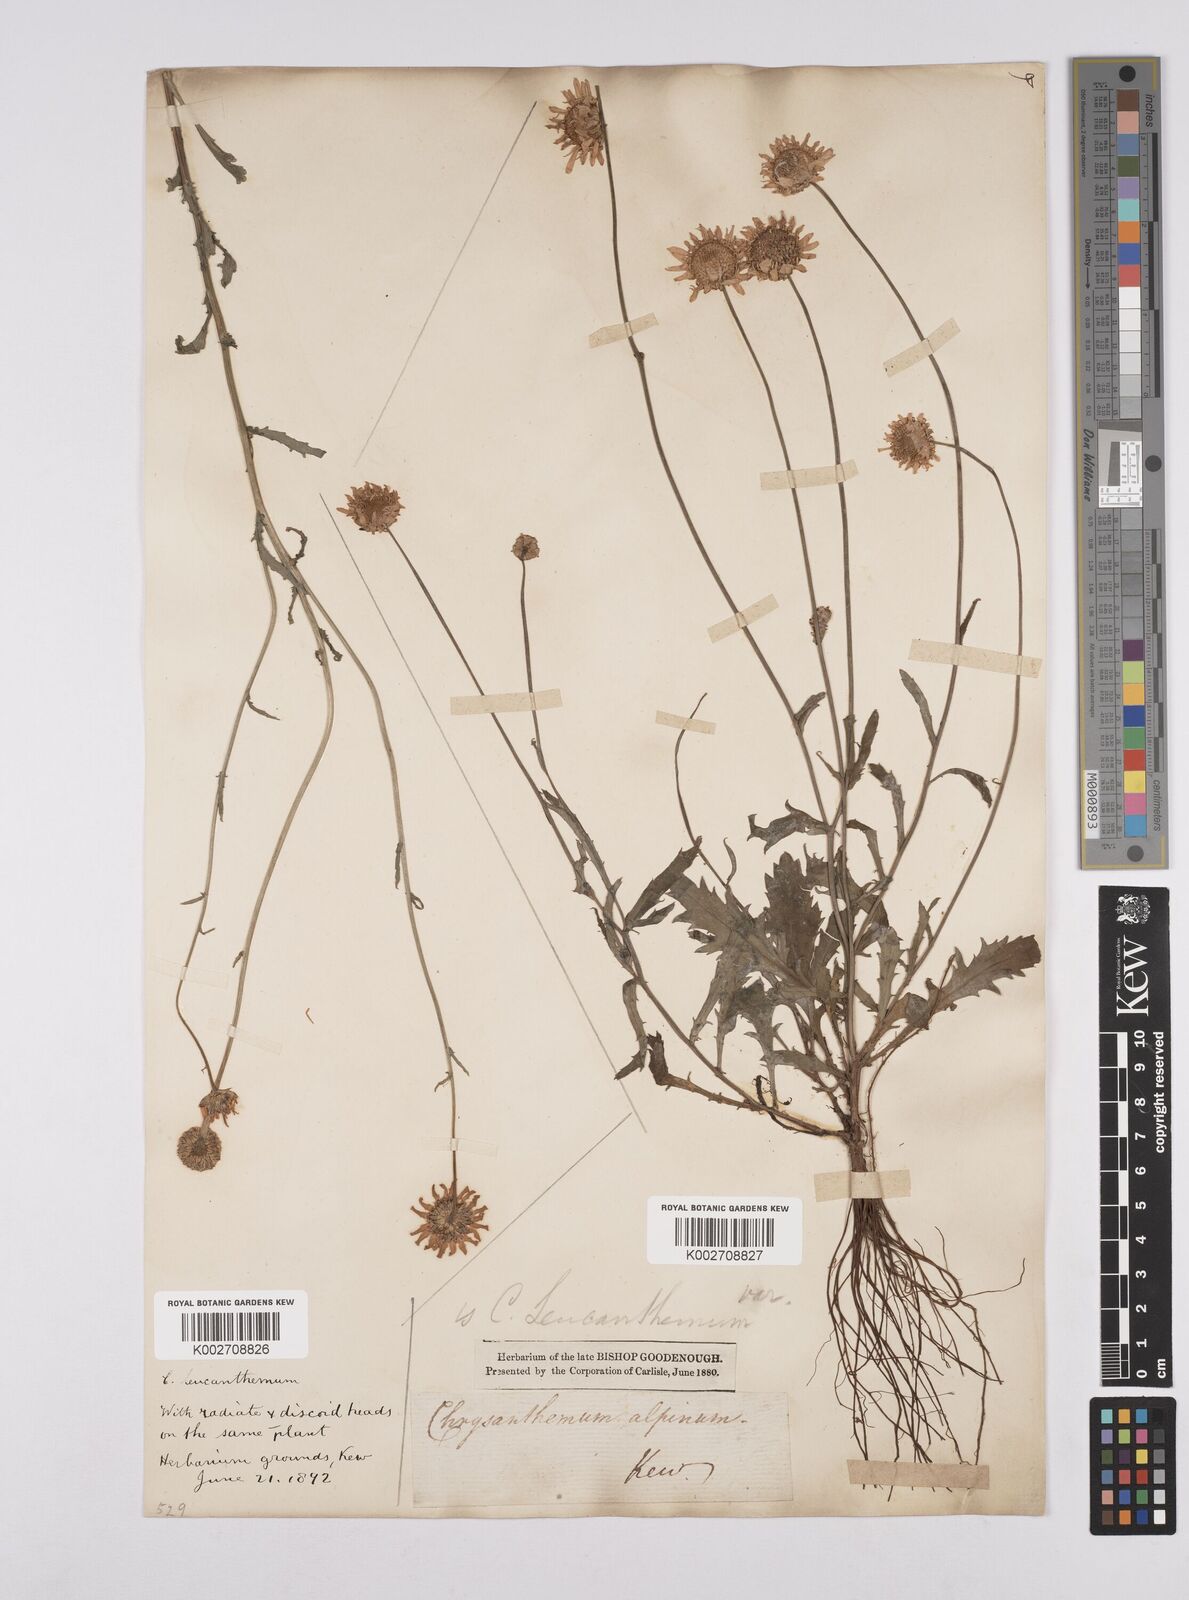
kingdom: Plantae
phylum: Tracheophyta
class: Magnoliopsida
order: Asterales
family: Asteraceae
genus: Leucanthemum
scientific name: Leucanthemum
